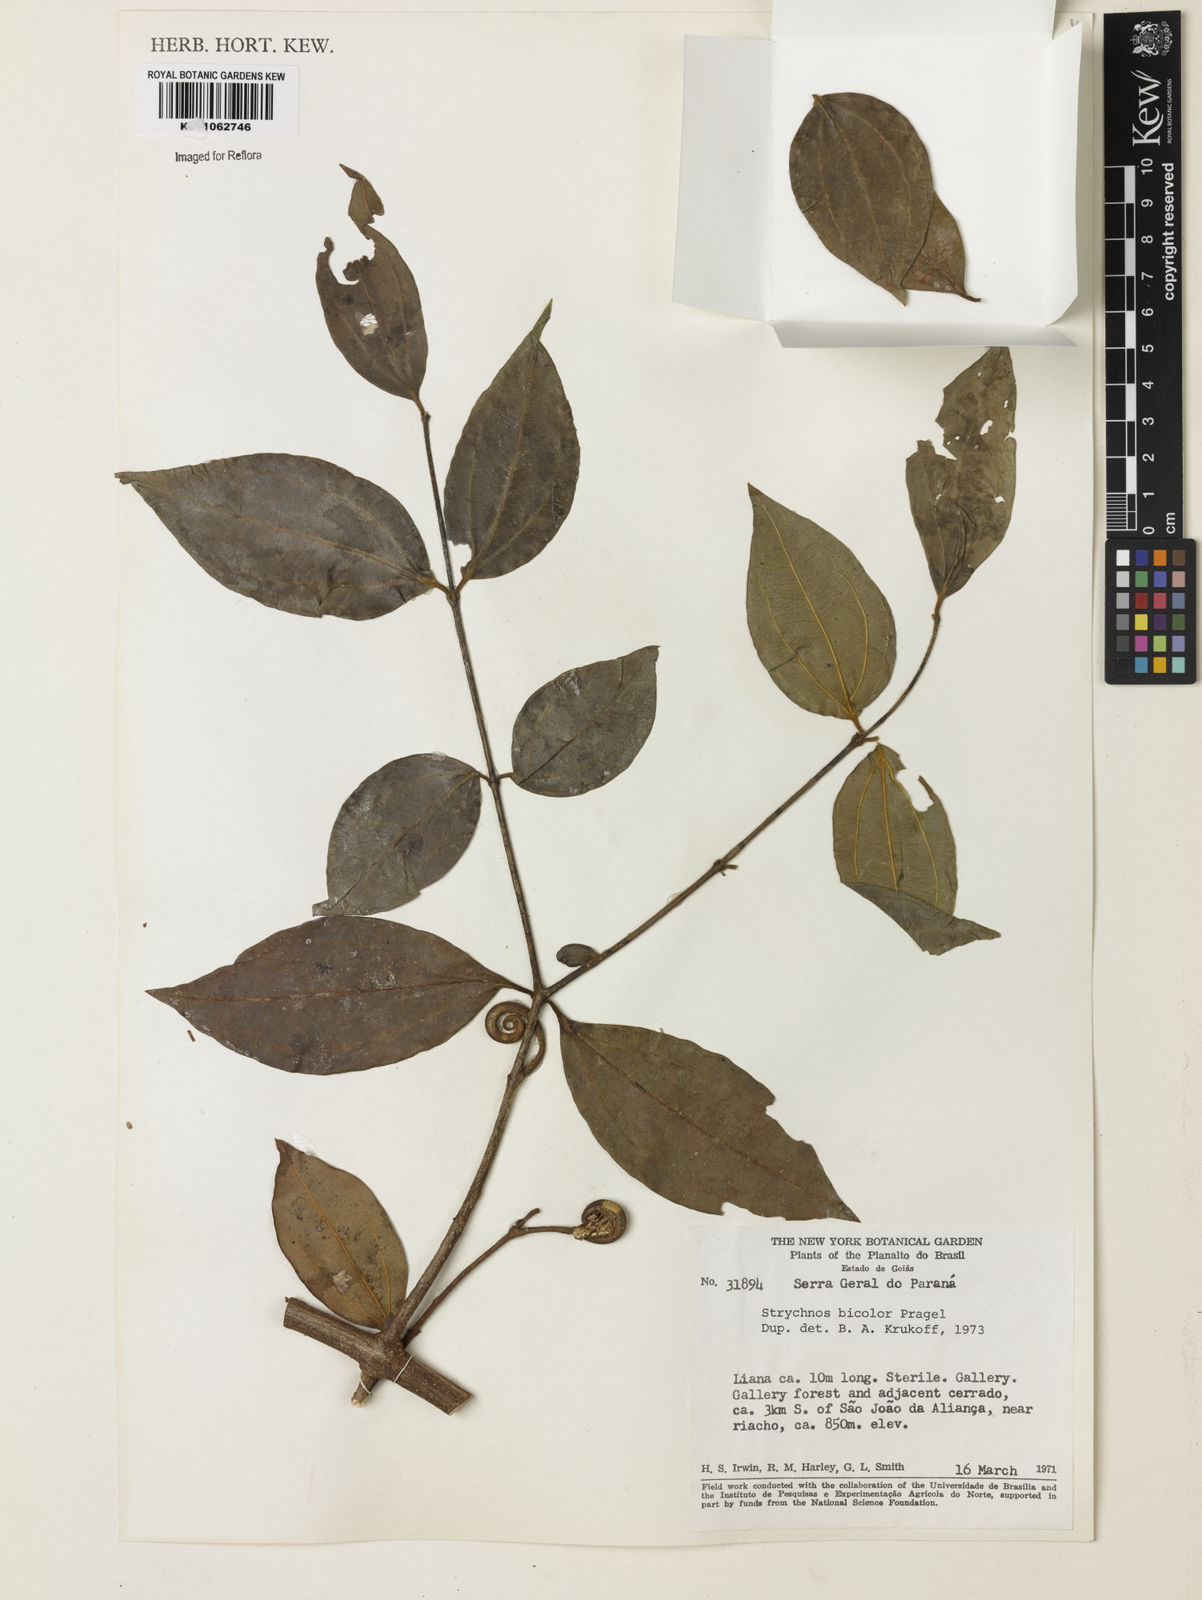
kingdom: Plantae
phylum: Tracheophyta
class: Magnoliopsida
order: Gentianales
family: Loganiaceae
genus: Strychnos
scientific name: Strychnos bicolor
